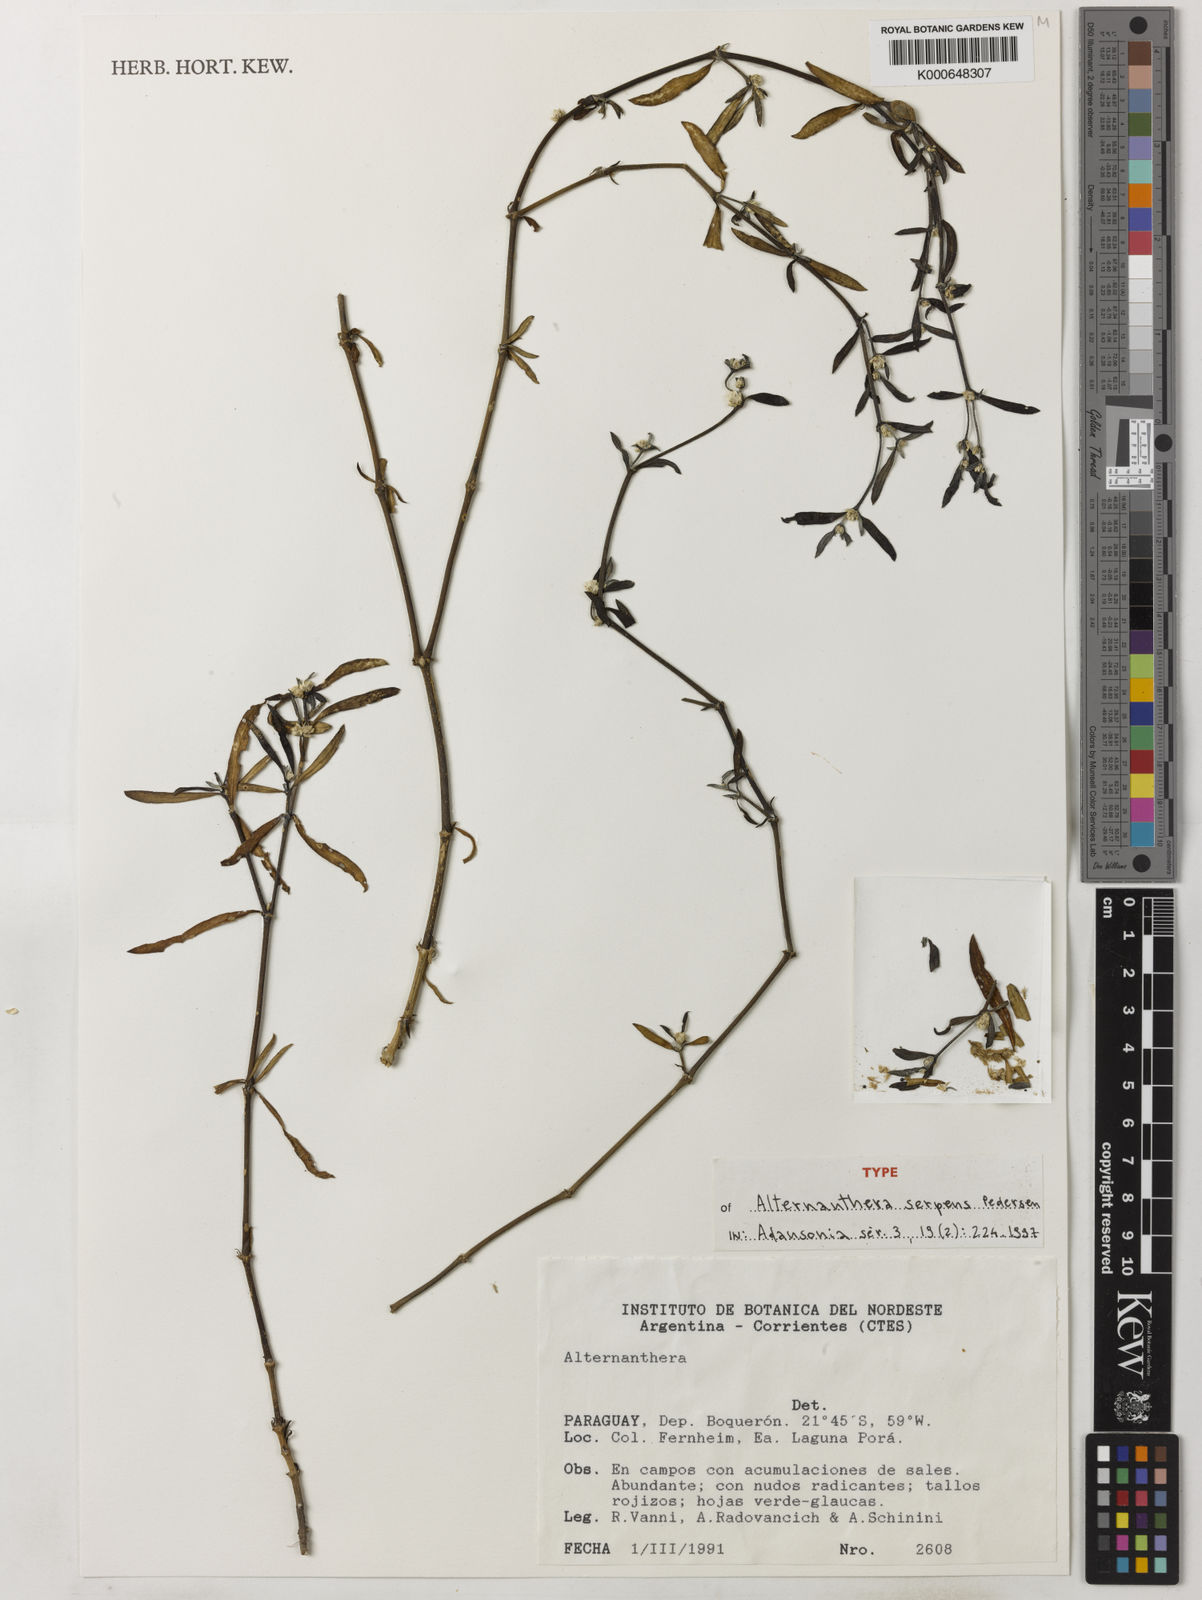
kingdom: Plantae
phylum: Tracheophyta
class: Magnoliopsida
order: Caryophyllales
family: Amaranthaceae
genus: Alternanthera
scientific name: Alternanthera serpens
